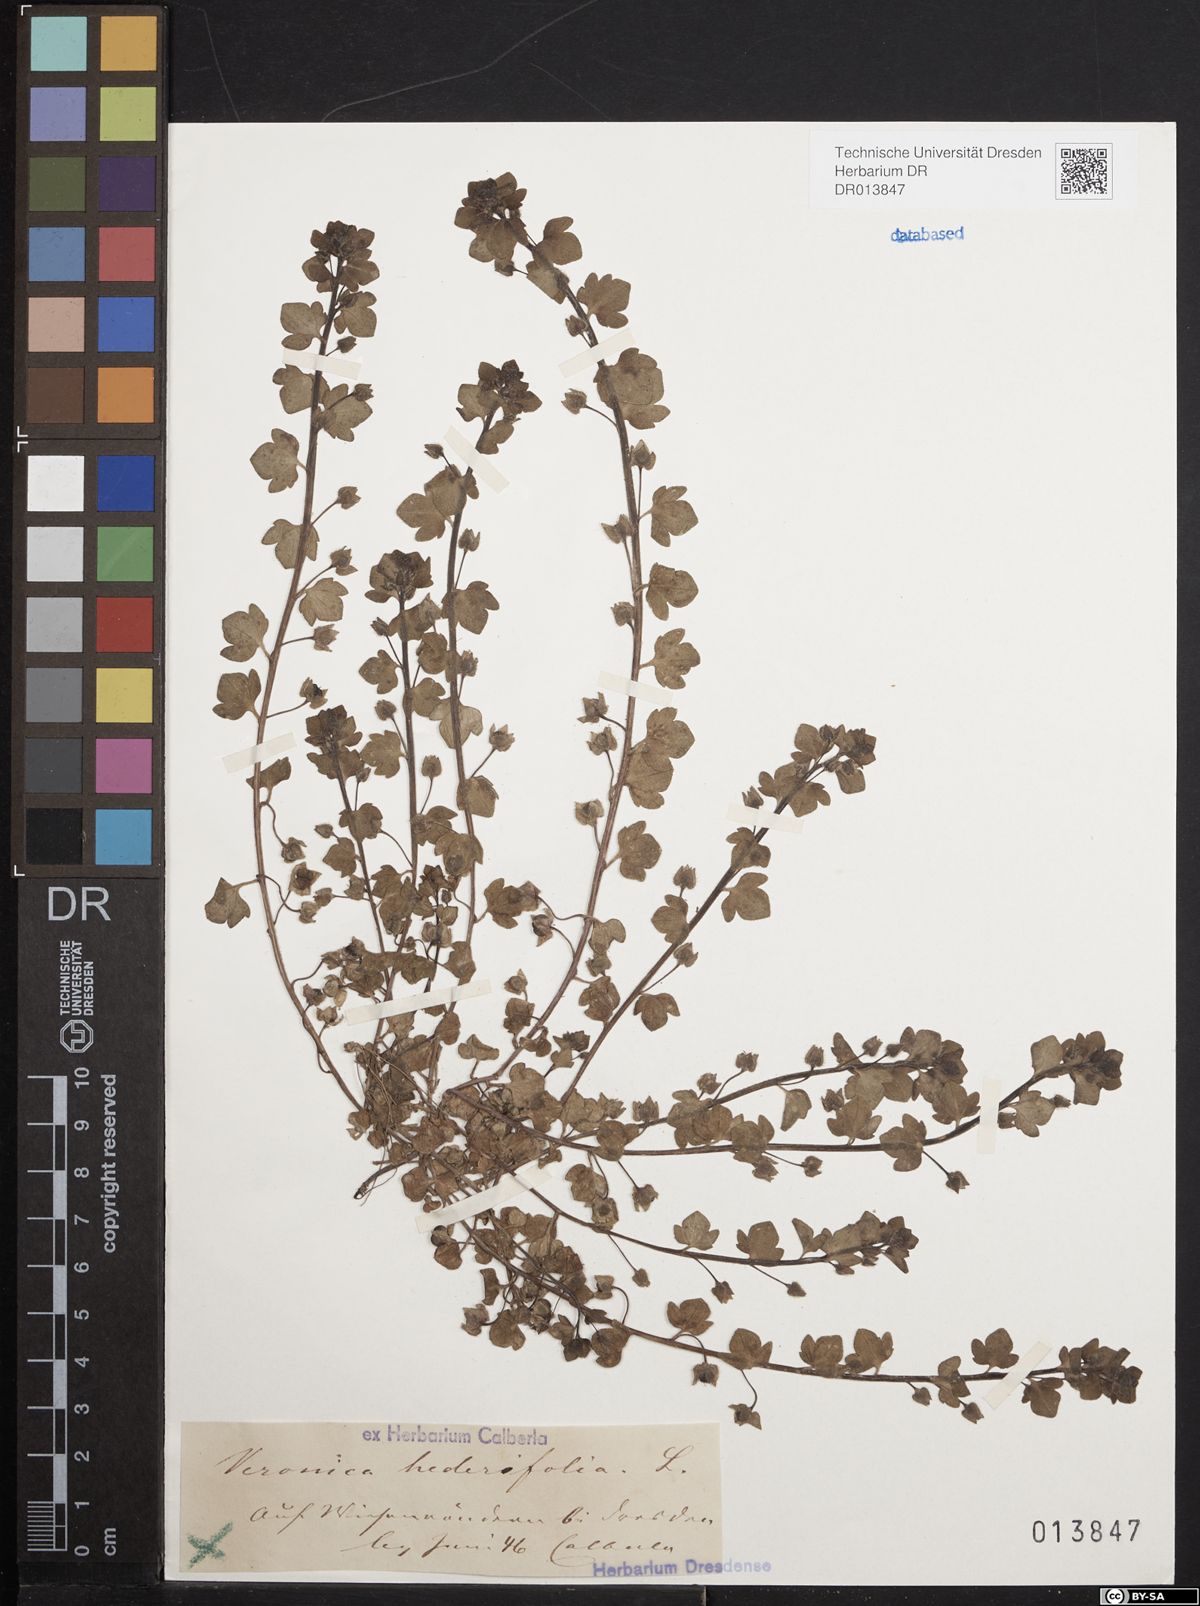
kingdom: Plantae
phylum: Tracheophyta
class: Magnoliopsida
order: Lamiales
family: Plantaginaceae
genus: Veronica
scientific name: Veronica hederifolia
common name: Ivy-leaved speedwell
